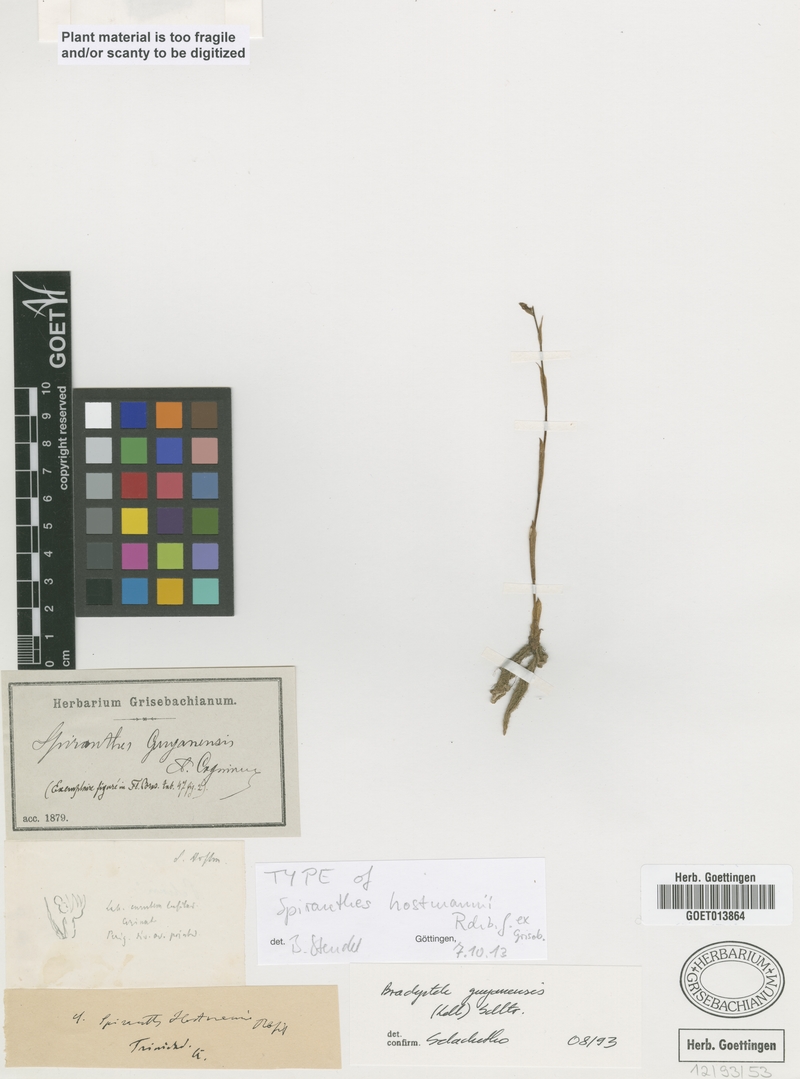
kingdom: Plantae
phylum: Tracheophyta
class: Liliopsida
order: Asparagales
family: Orchidaceae
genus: Brachystele
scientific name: Brachystele guayanensis
